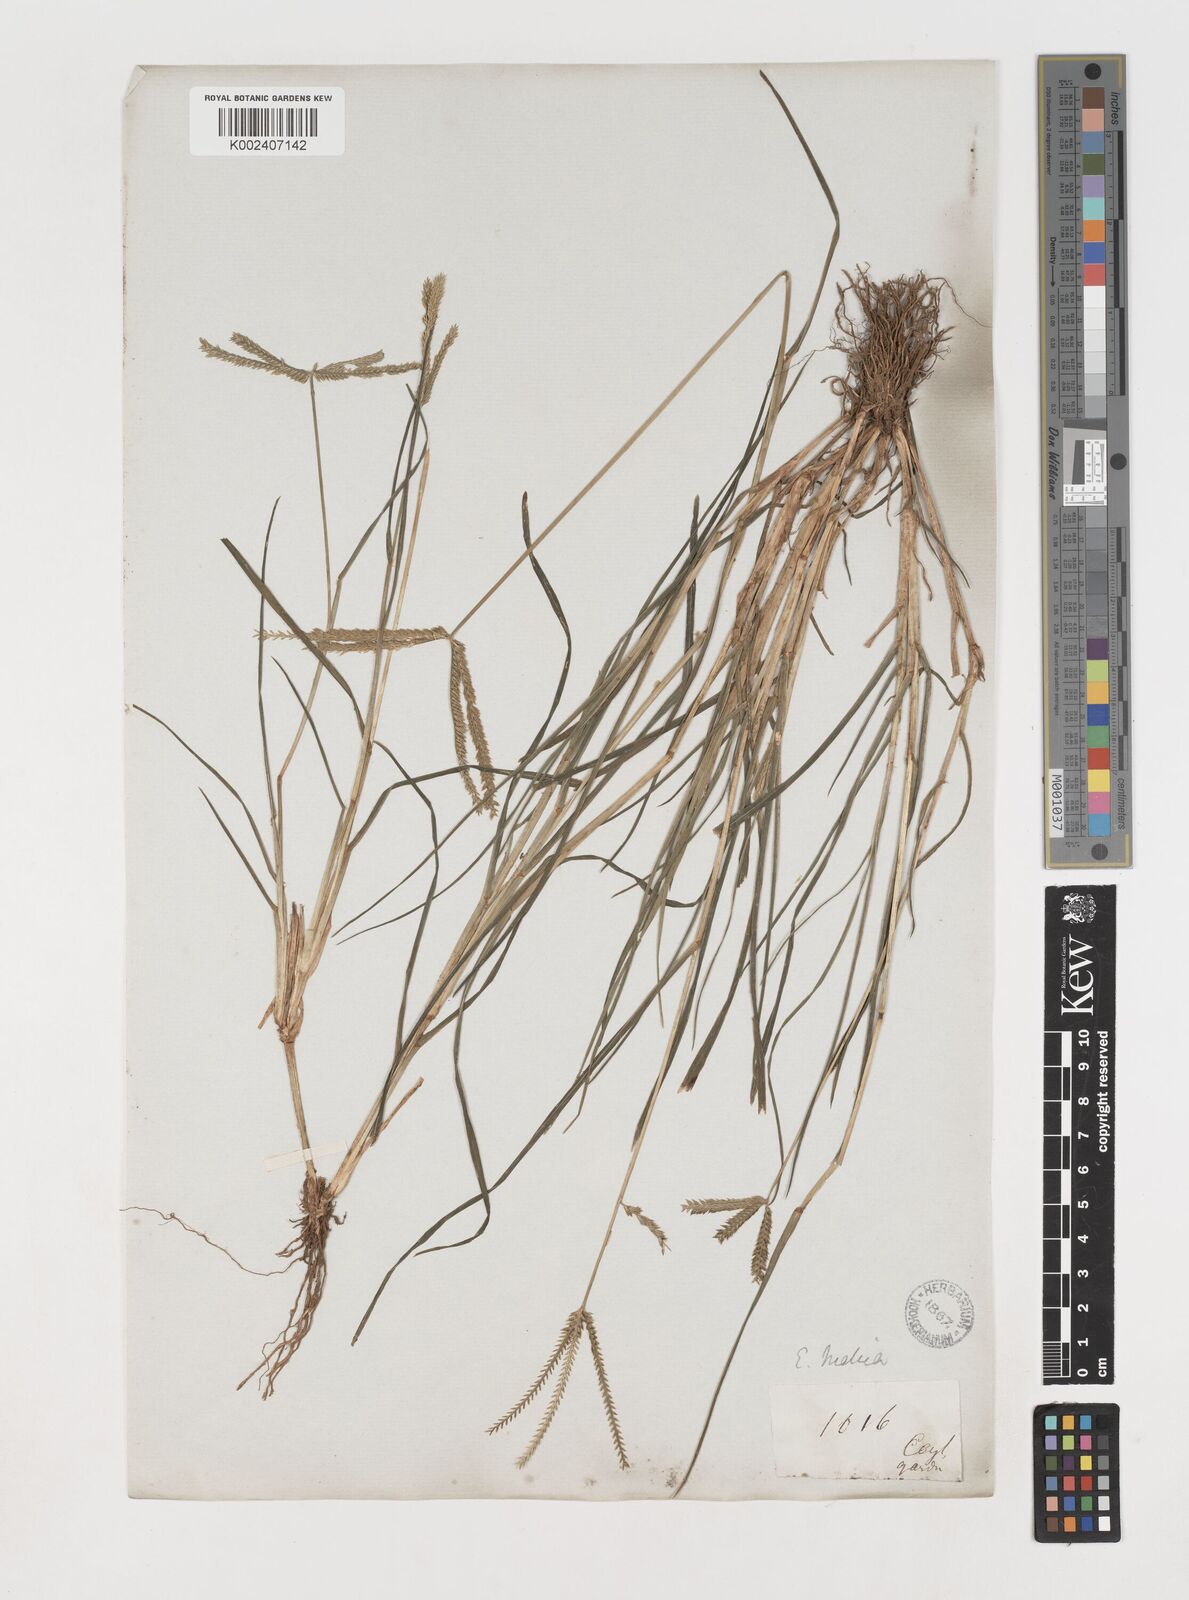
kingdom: Plantae
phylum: Tracheophyta
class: Liliopsida
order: Poales
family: Poaceae
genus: Eleusine
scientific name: Eleusine indica
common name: Yard-grass
